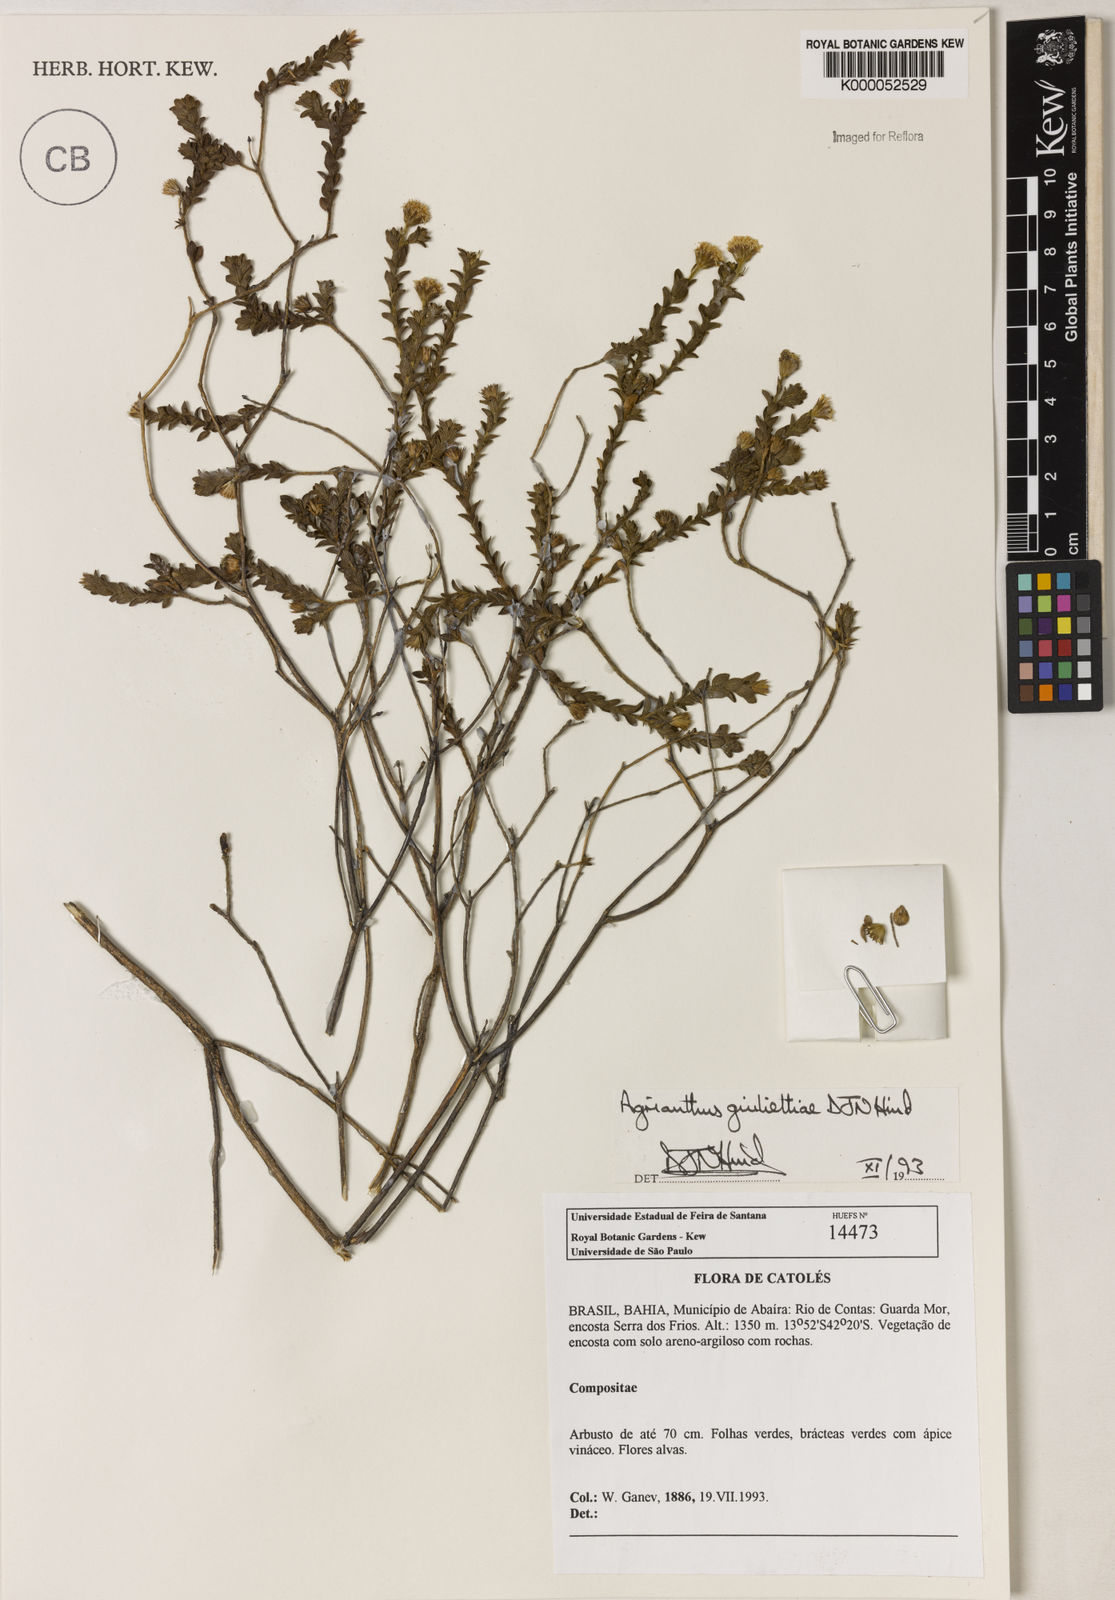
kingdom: Plantae
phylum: Tracheophyta
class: Magnoliopsida
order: Asterales
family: Asteraceae
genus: Agrianthus
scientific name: Agrianthus giuliettiae
